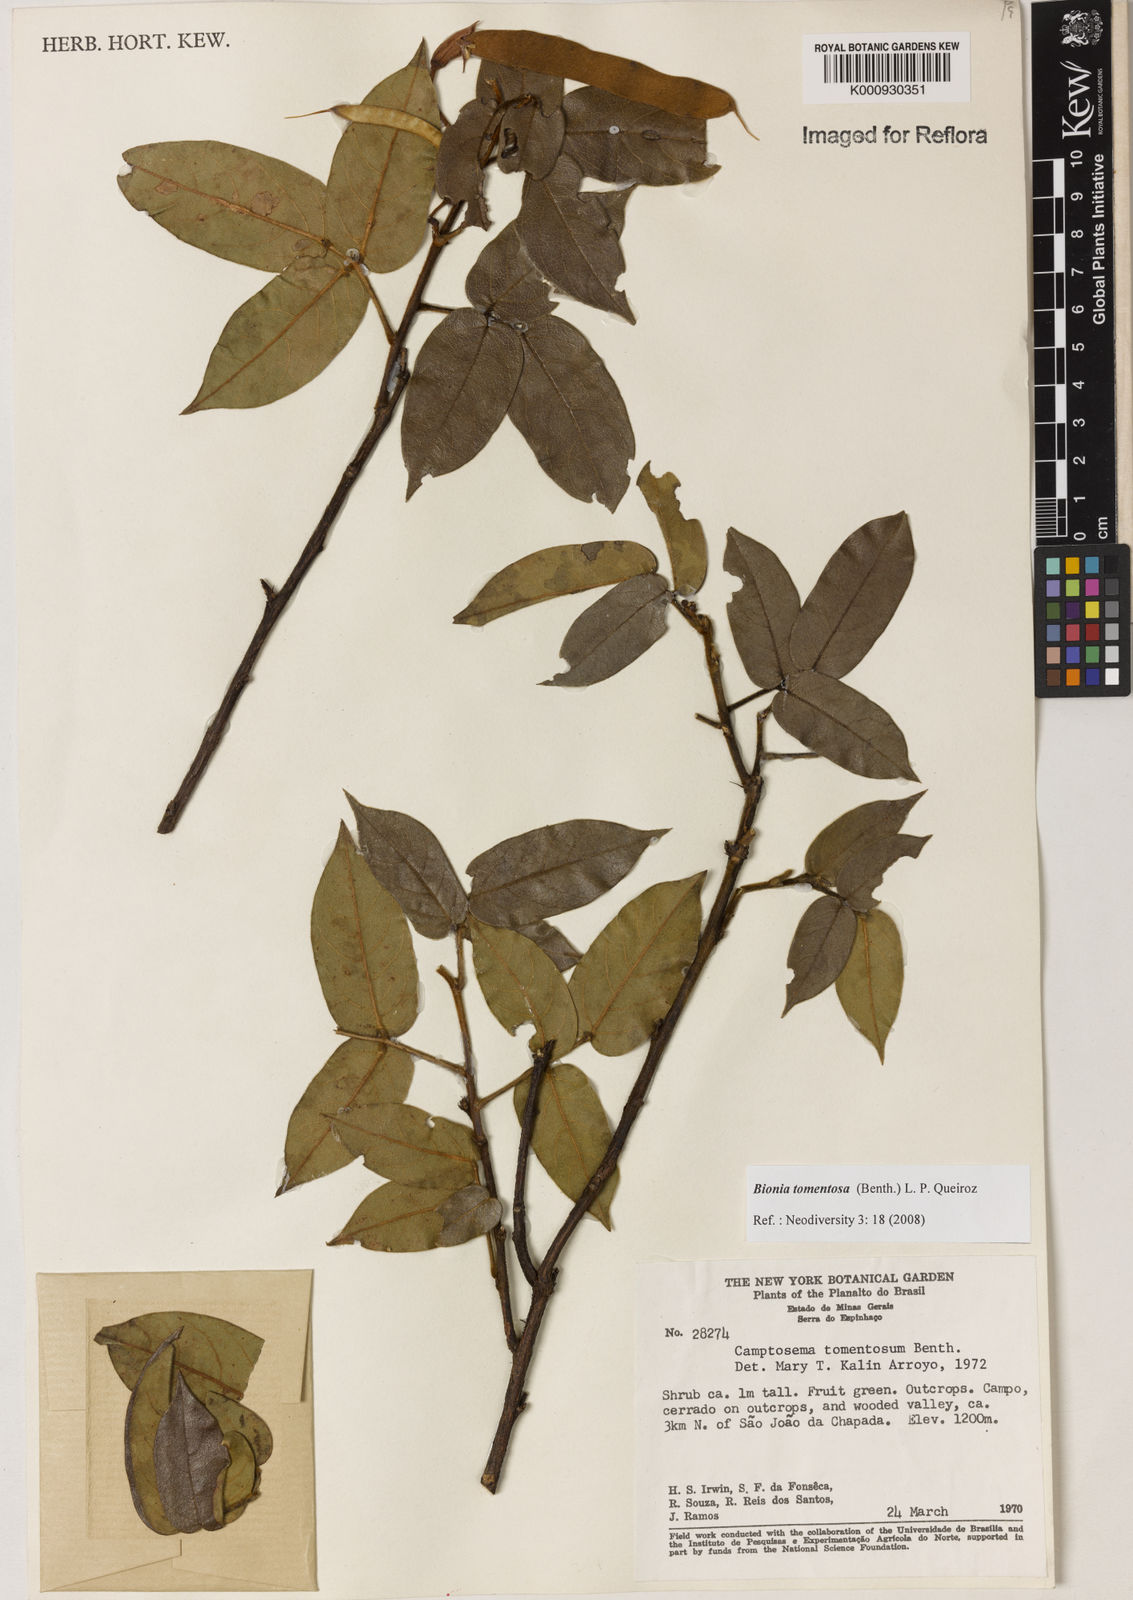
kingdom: Plantae
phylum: Tracheophyta
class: Magnoliopsida
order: Fabales
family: Fabaceae
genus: Camptosema
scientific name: Camptosema tomentosum
